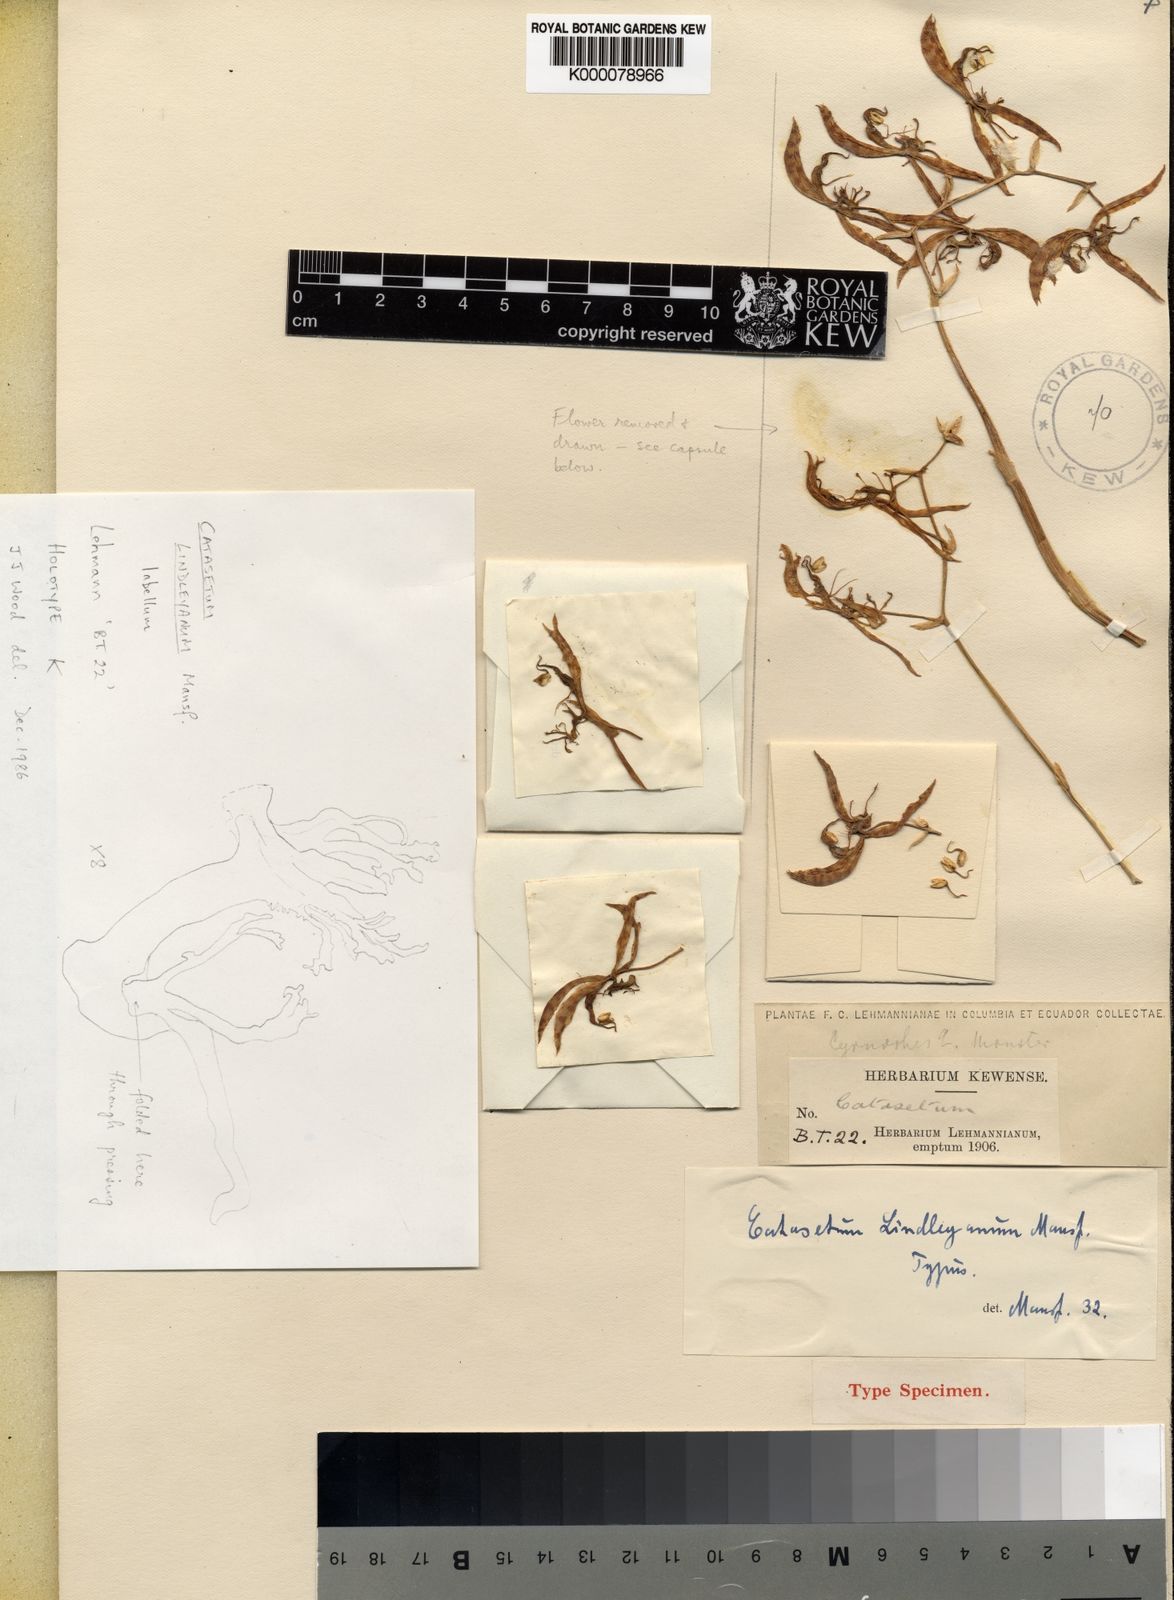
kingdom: Plantae
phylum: Tracheophyta
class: Liliopsida
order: Asparagales
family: Orchidaceae
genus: Catasetum
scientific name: Catasetum lindleyanum
